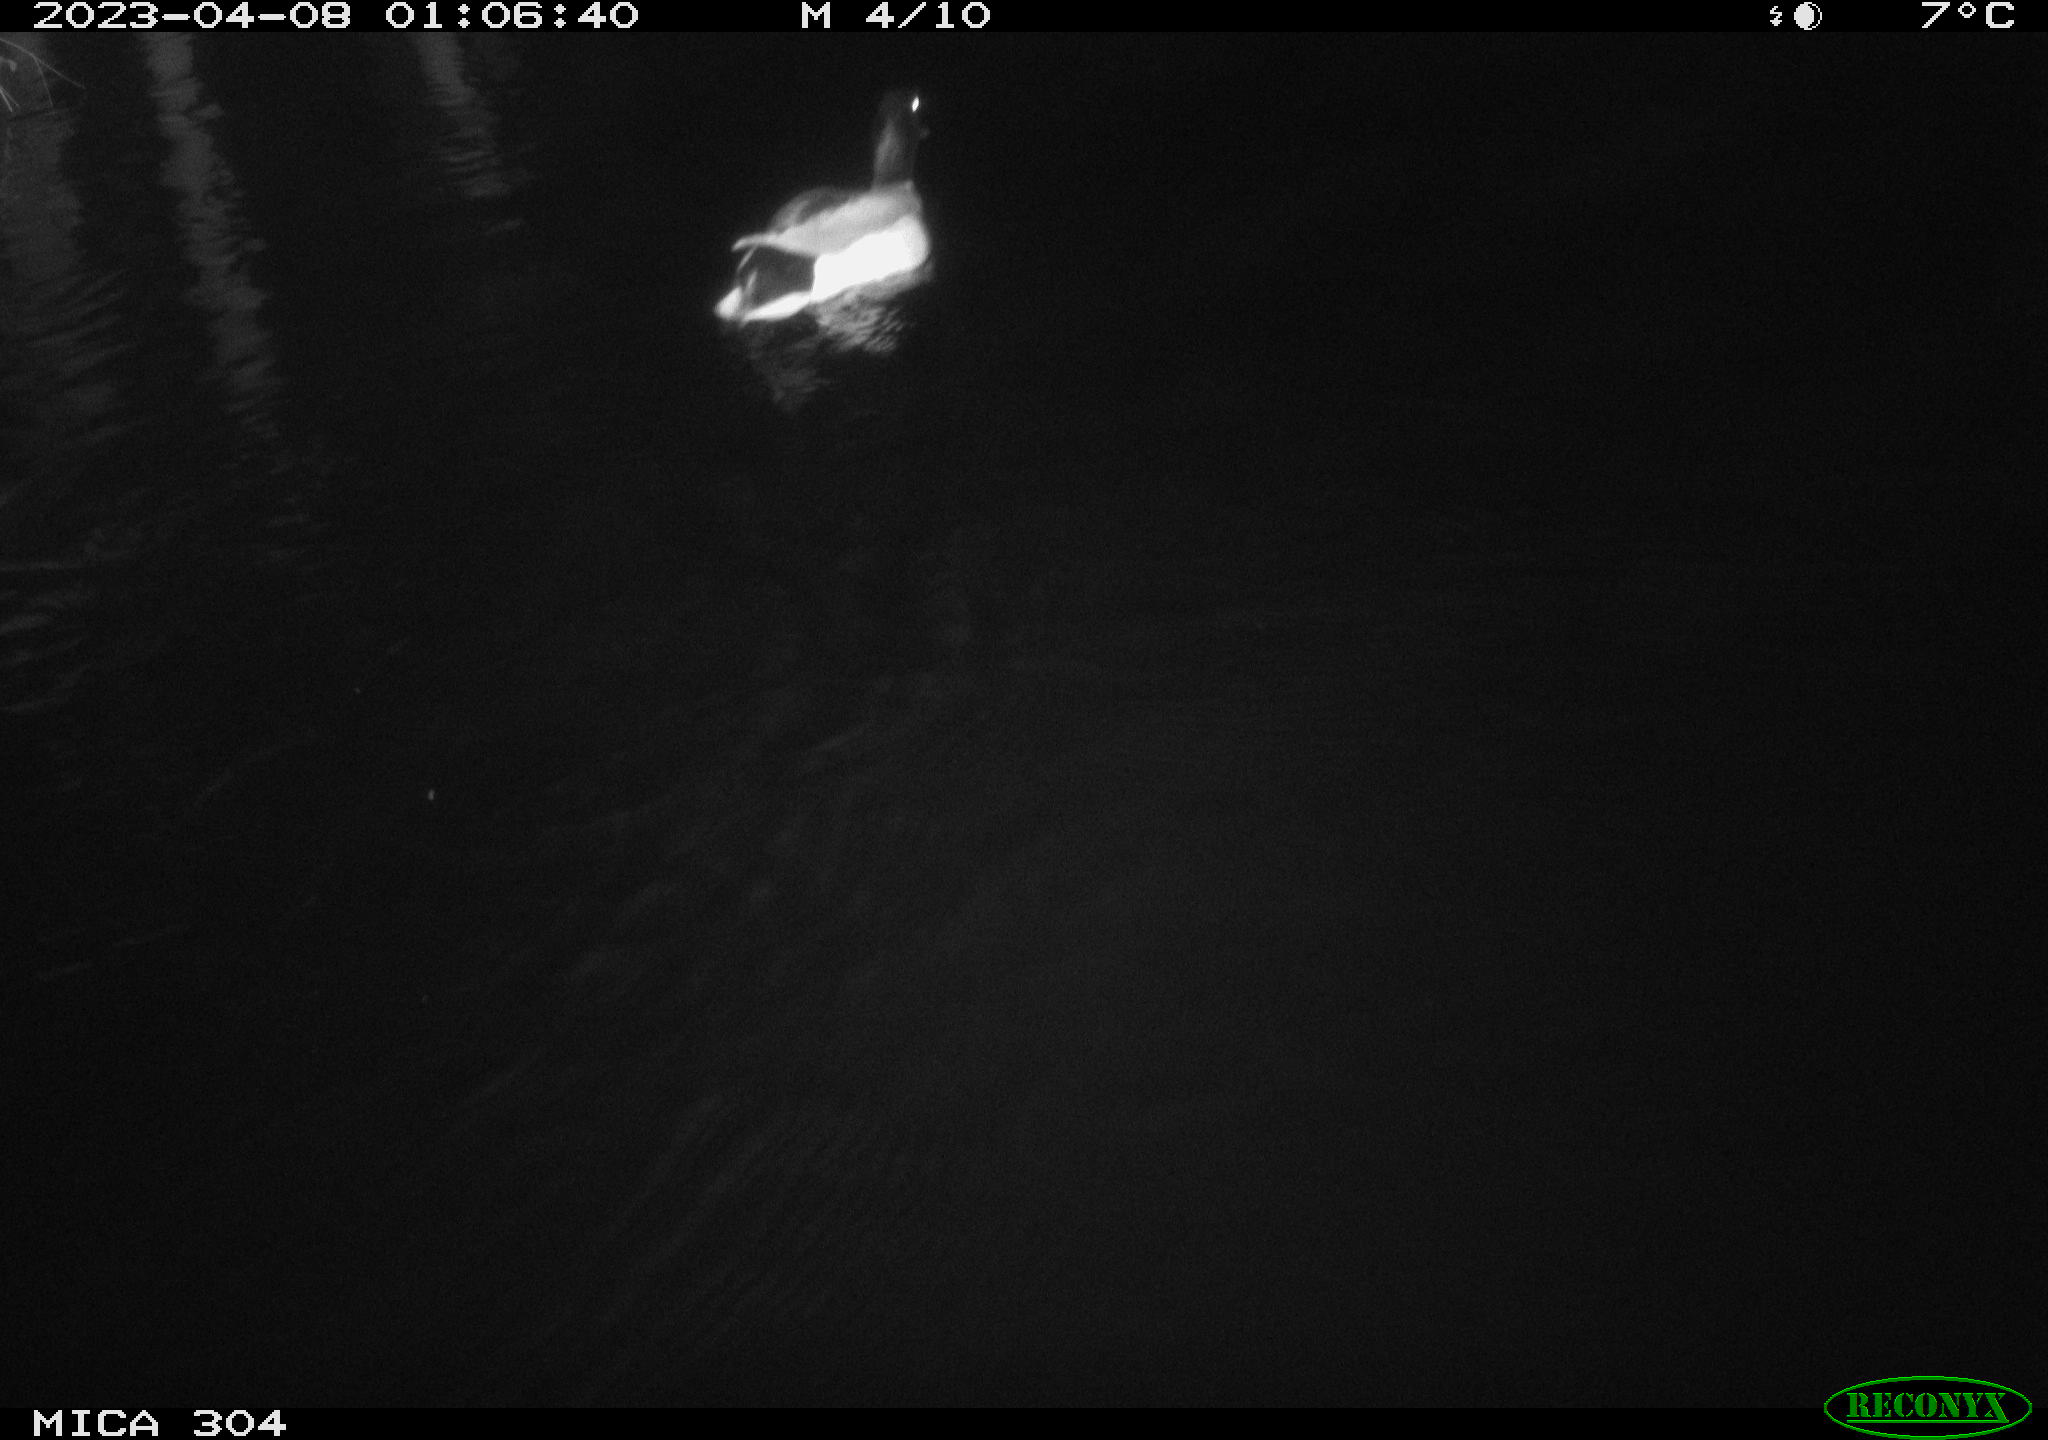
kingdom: Animalia
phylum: Chordata
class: Aves
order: Anseriformes
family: Anatidae
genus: Anas
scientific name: Anas
